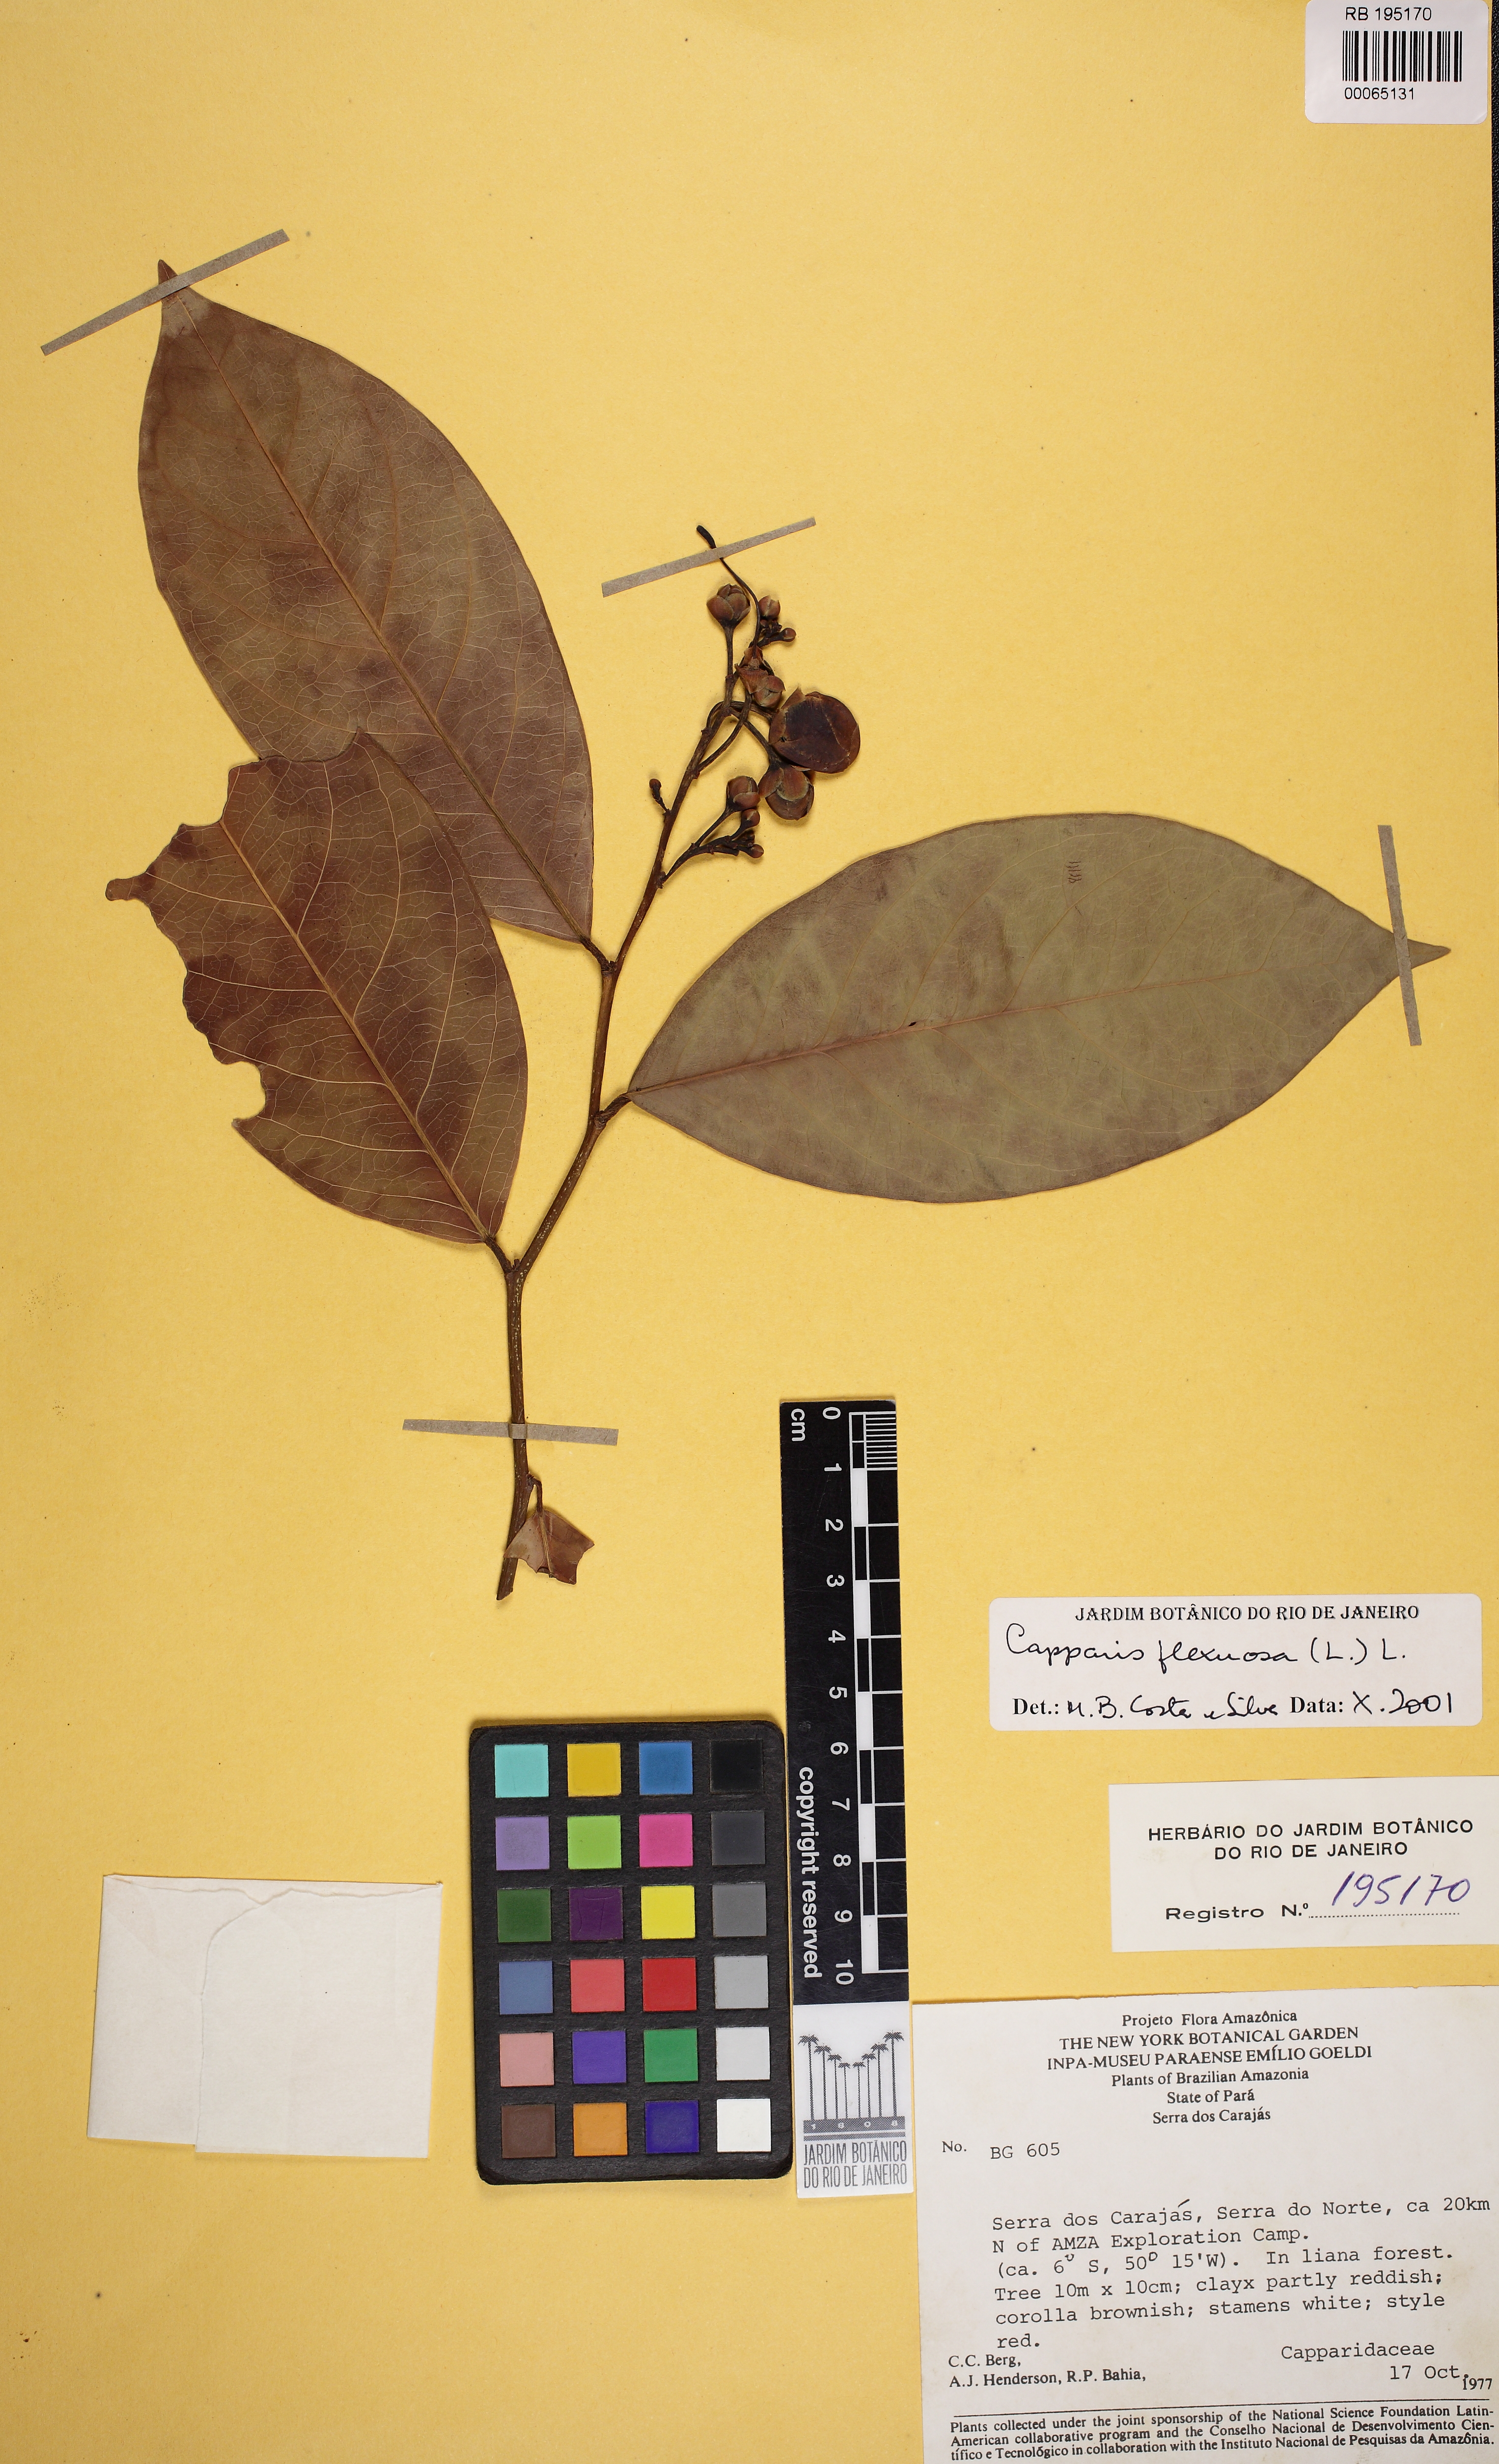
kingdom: Plantae
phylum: Tracheophyta
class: Magnoliopsida
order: Brassicales
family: Capparaceae
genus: Cynophalla
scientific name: Cynophalla flexuosa
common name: Capertree
